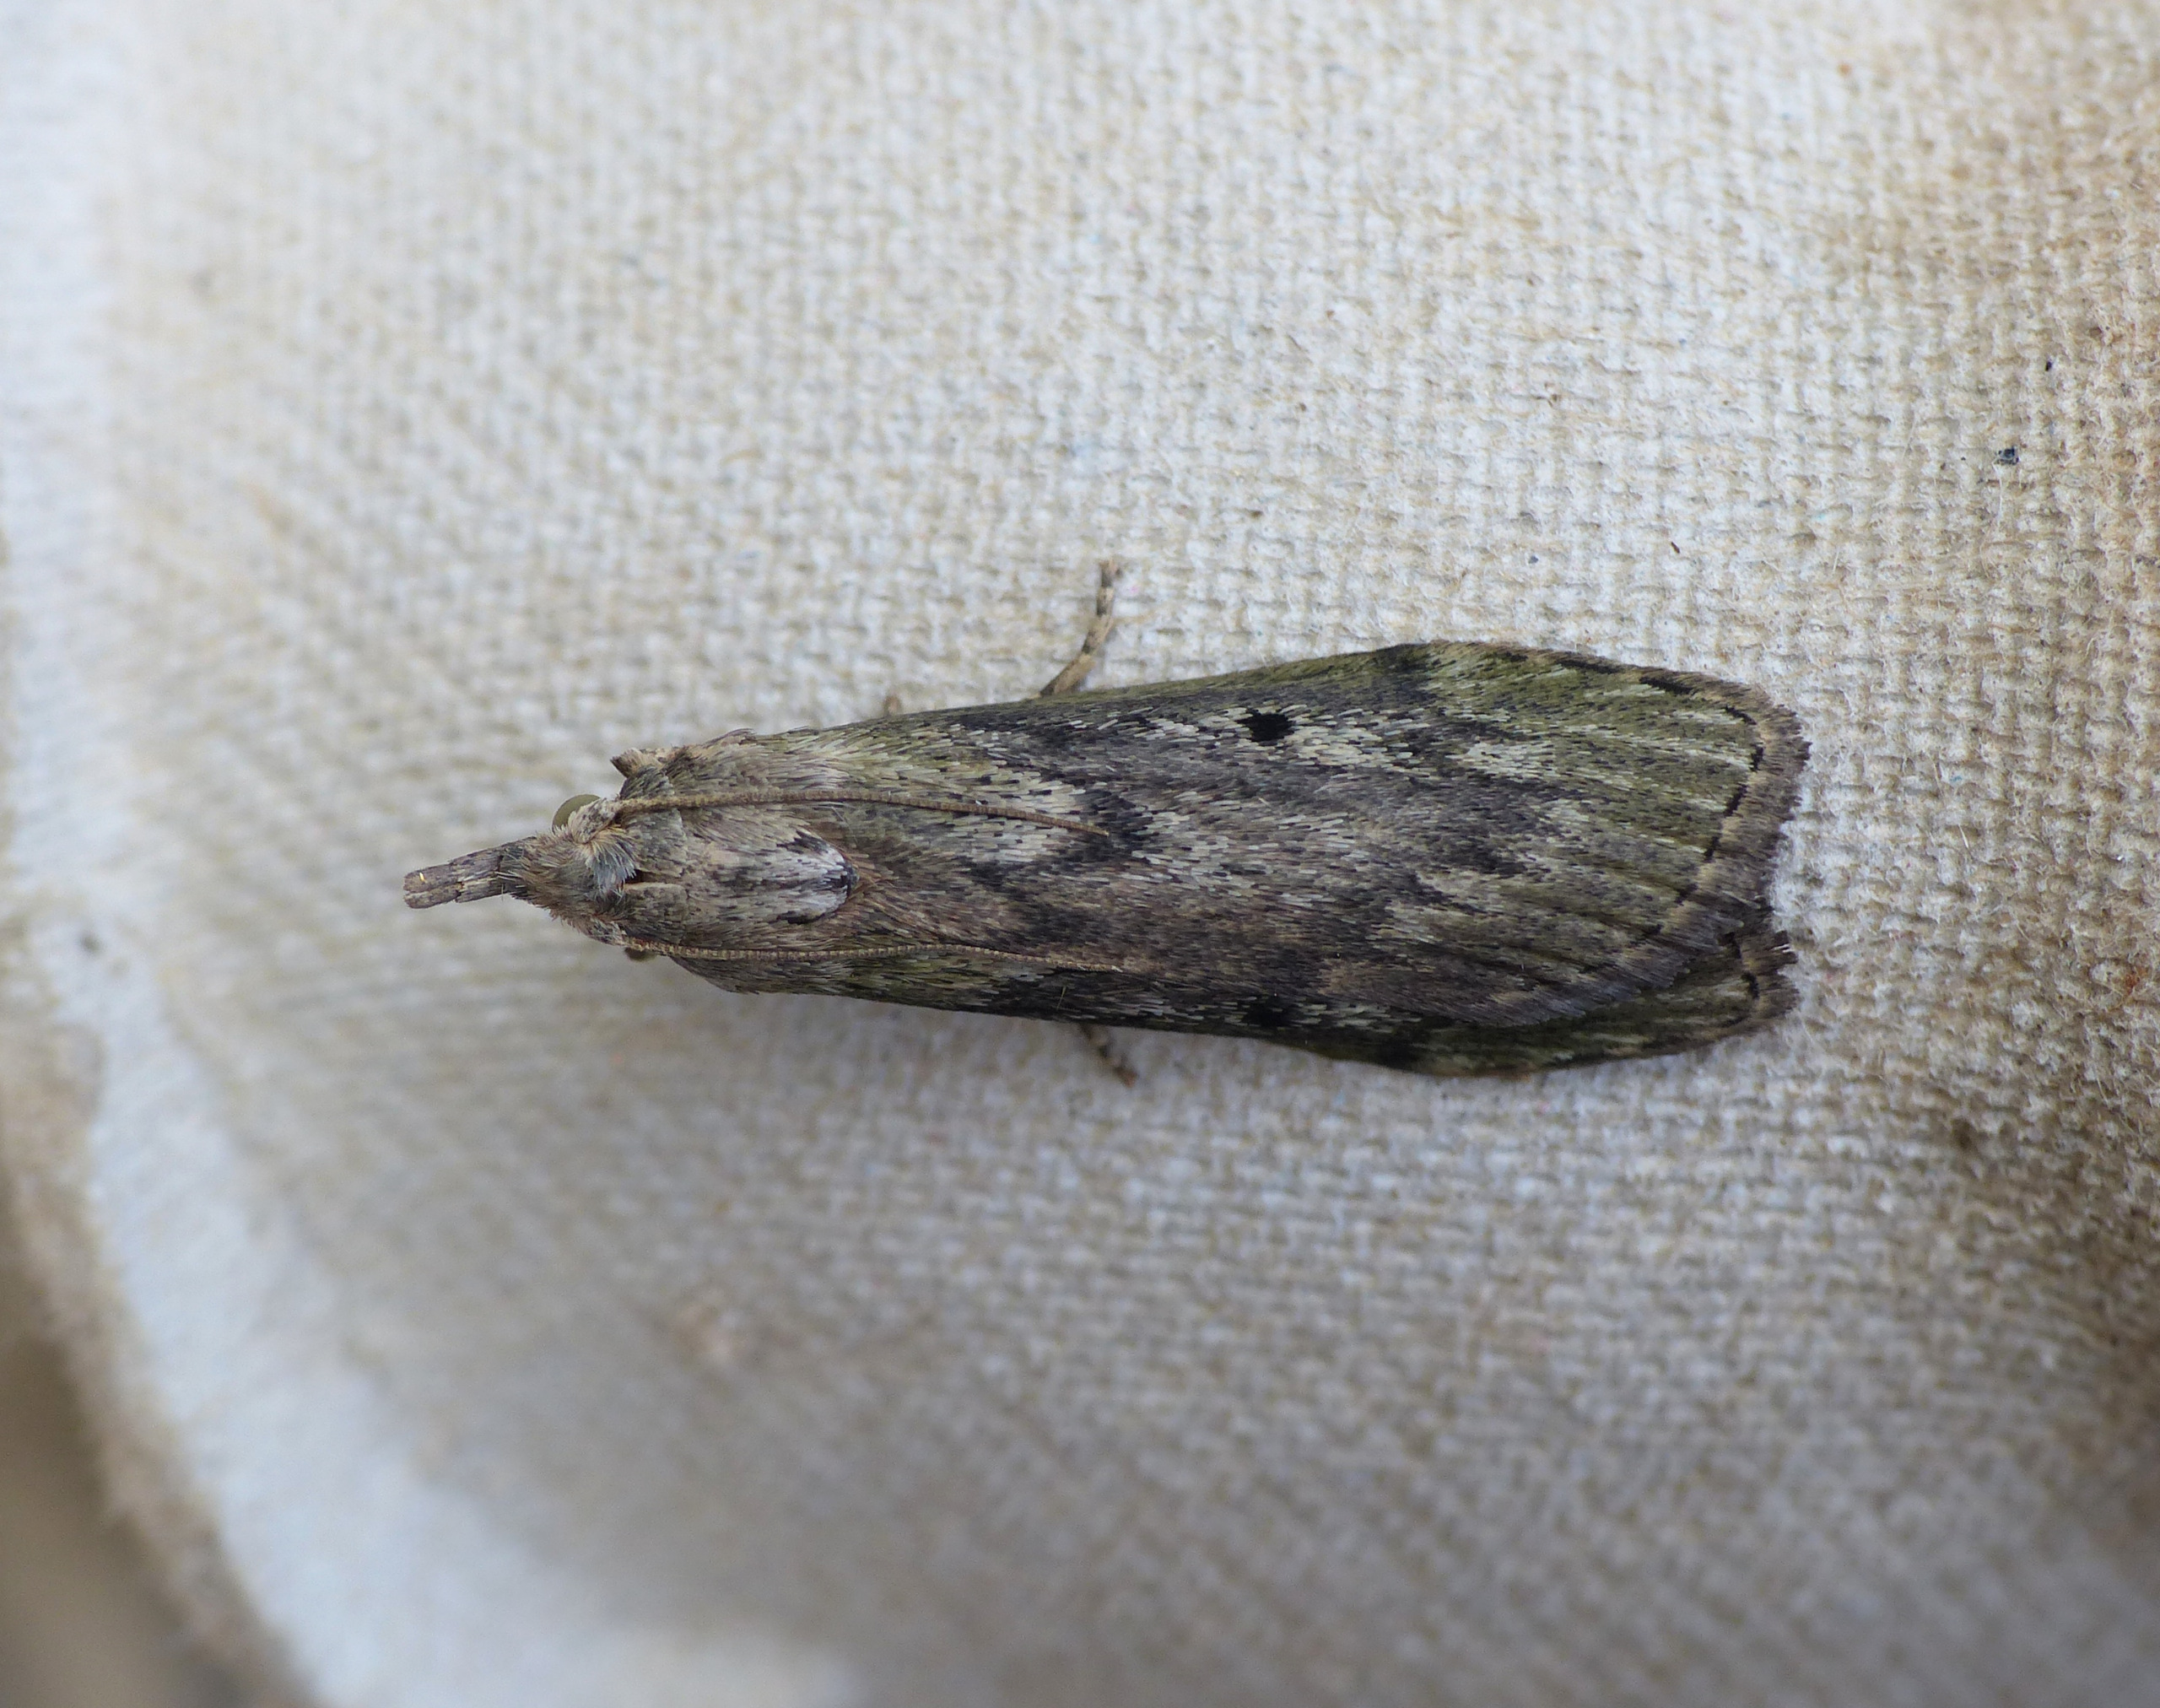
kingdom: Animalia
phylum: Arthropoda
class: Insecta
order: Lepidoptera
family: Pyralidae
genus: Aphomia
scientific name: Aphomia sociella
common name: Humlevoksmøl
